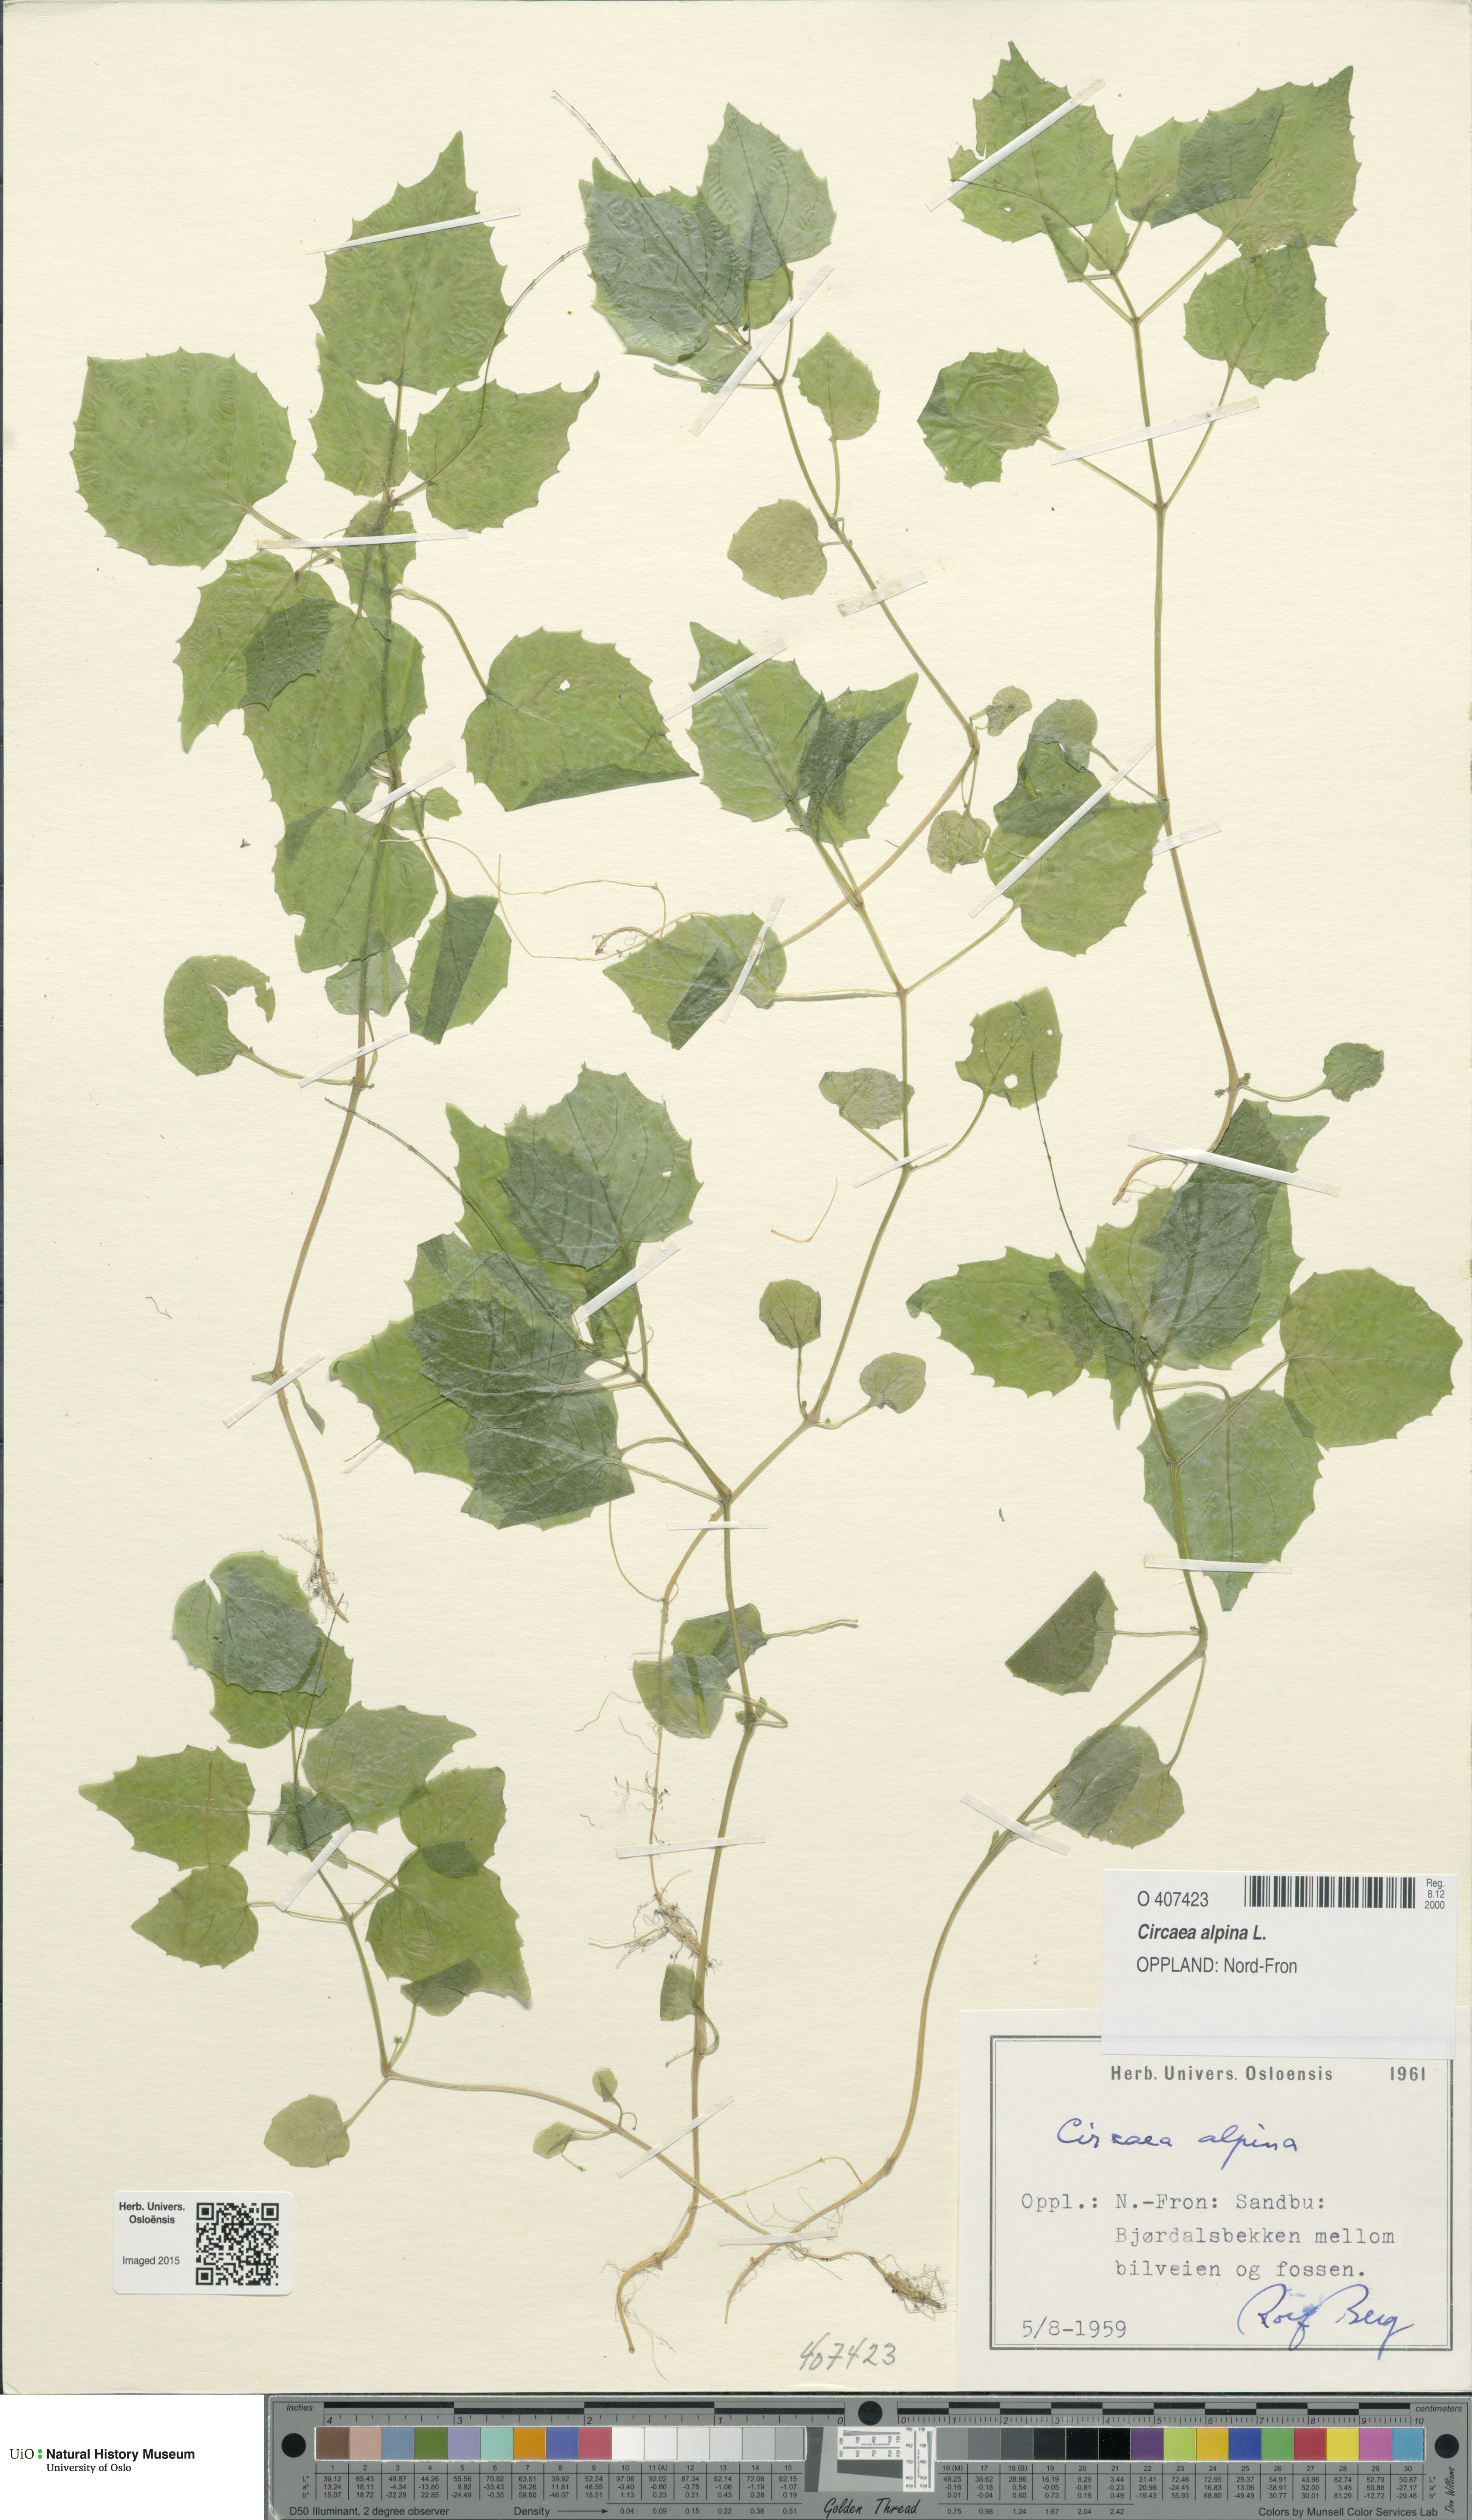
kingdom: Plantae
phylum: Tracheophyta
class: Magnoliopsida
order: Myrtales
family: Onagraceae
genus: Circaea
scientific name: Circaea alpina
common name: Alpine enchanter's-nightshade
